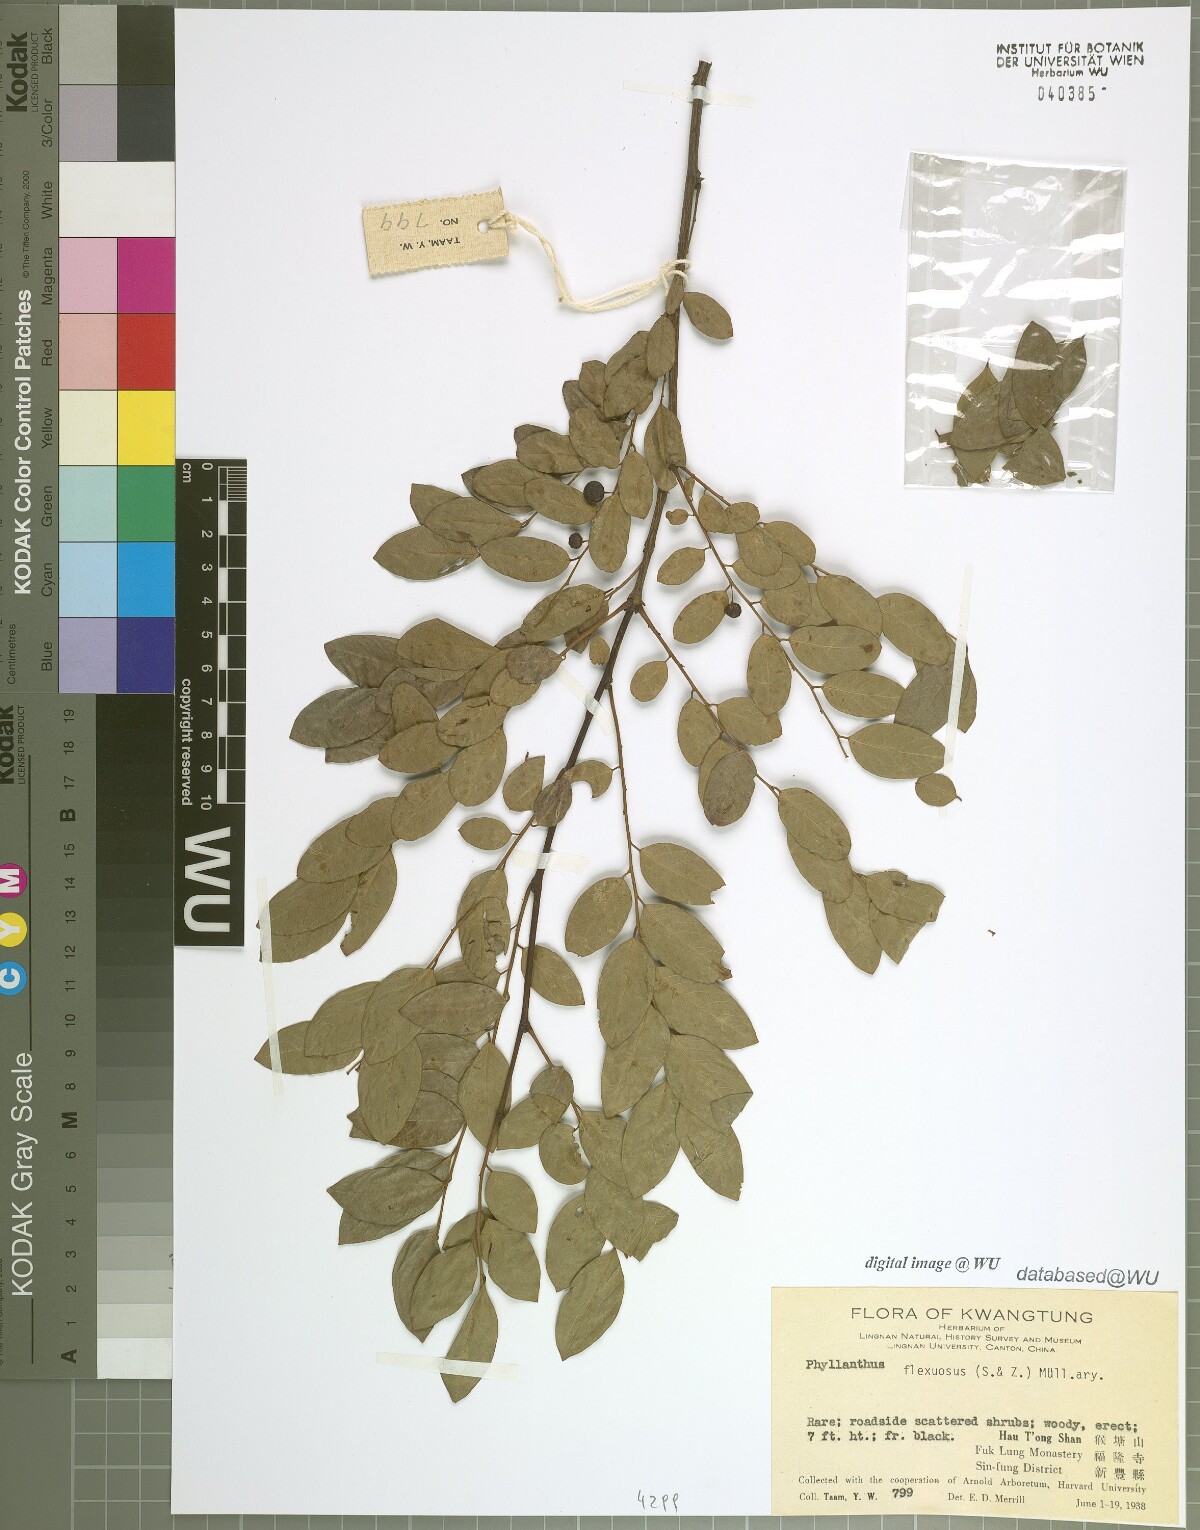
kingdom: Plantae
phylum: Tracheophyta
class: Magnoliopsida
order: Malpighiales
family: Phyllanthaceae
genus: Phyllanthus
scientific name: Phyllanthus flexuosus
